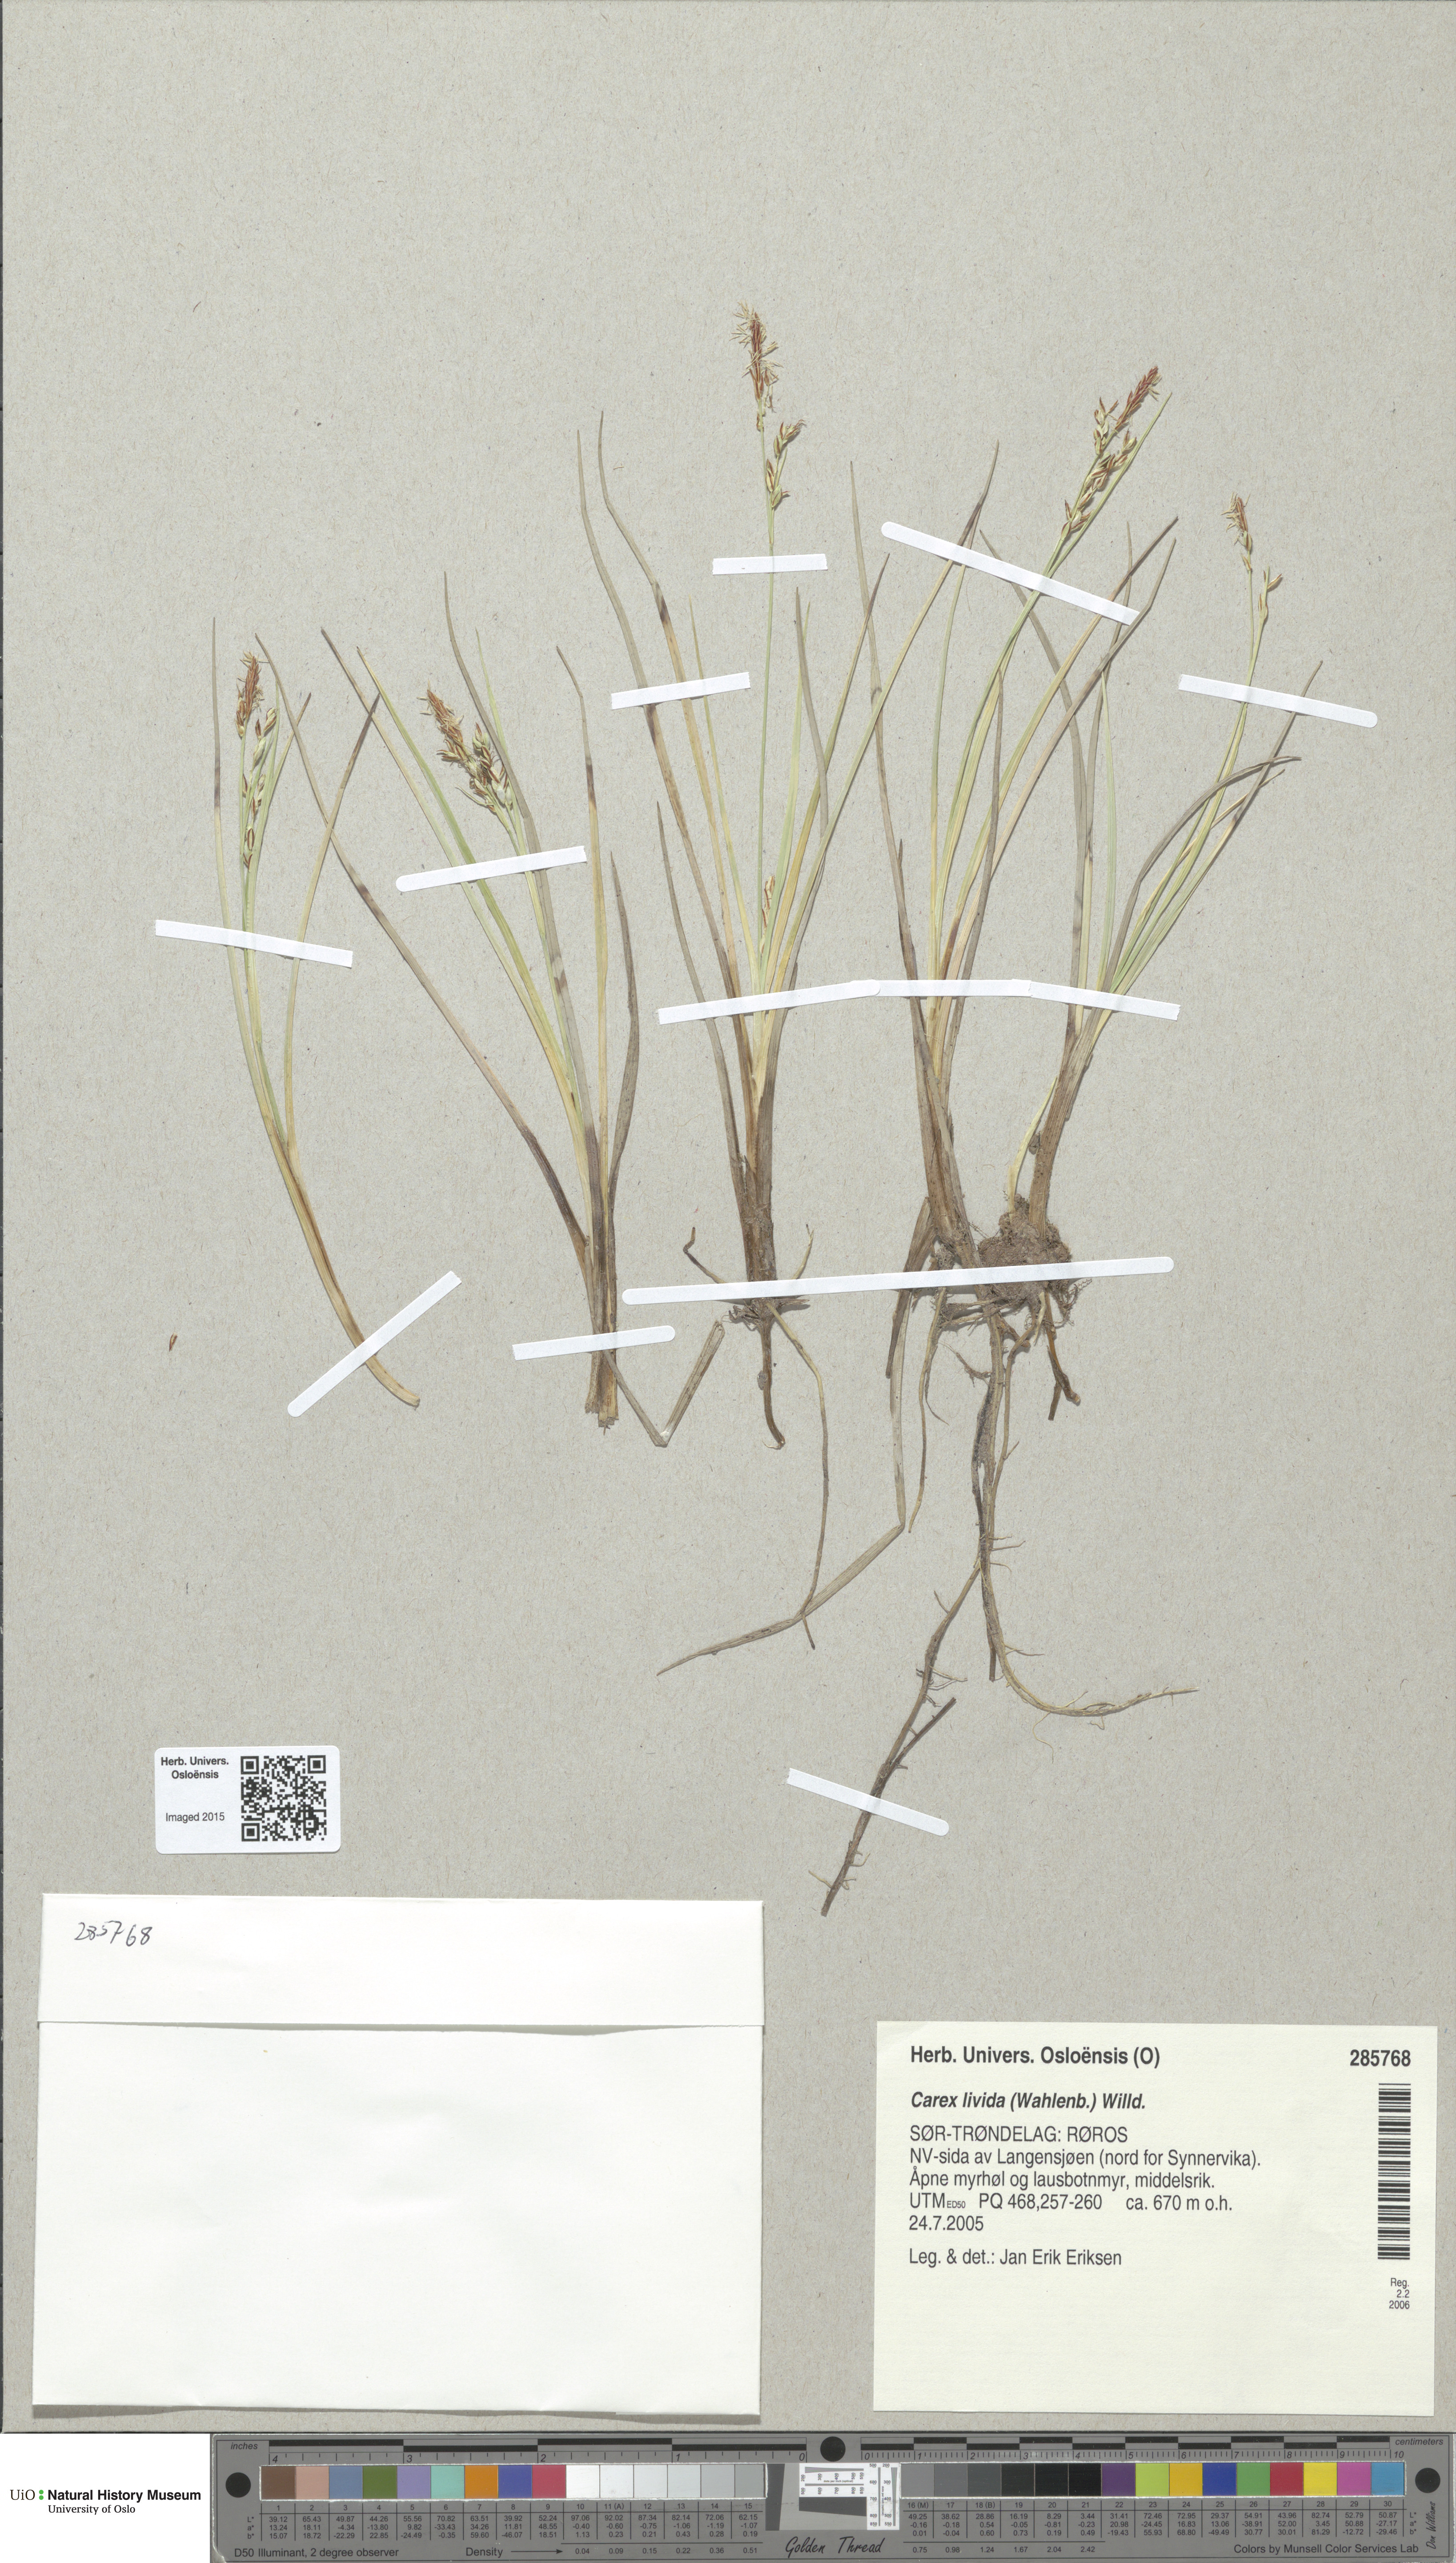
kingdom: Plantae
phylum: Tracheophyta
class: Liliopsida
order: Poales
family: Cyperaceae
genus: Carex
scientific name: Carex livida
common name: Livid sedge
